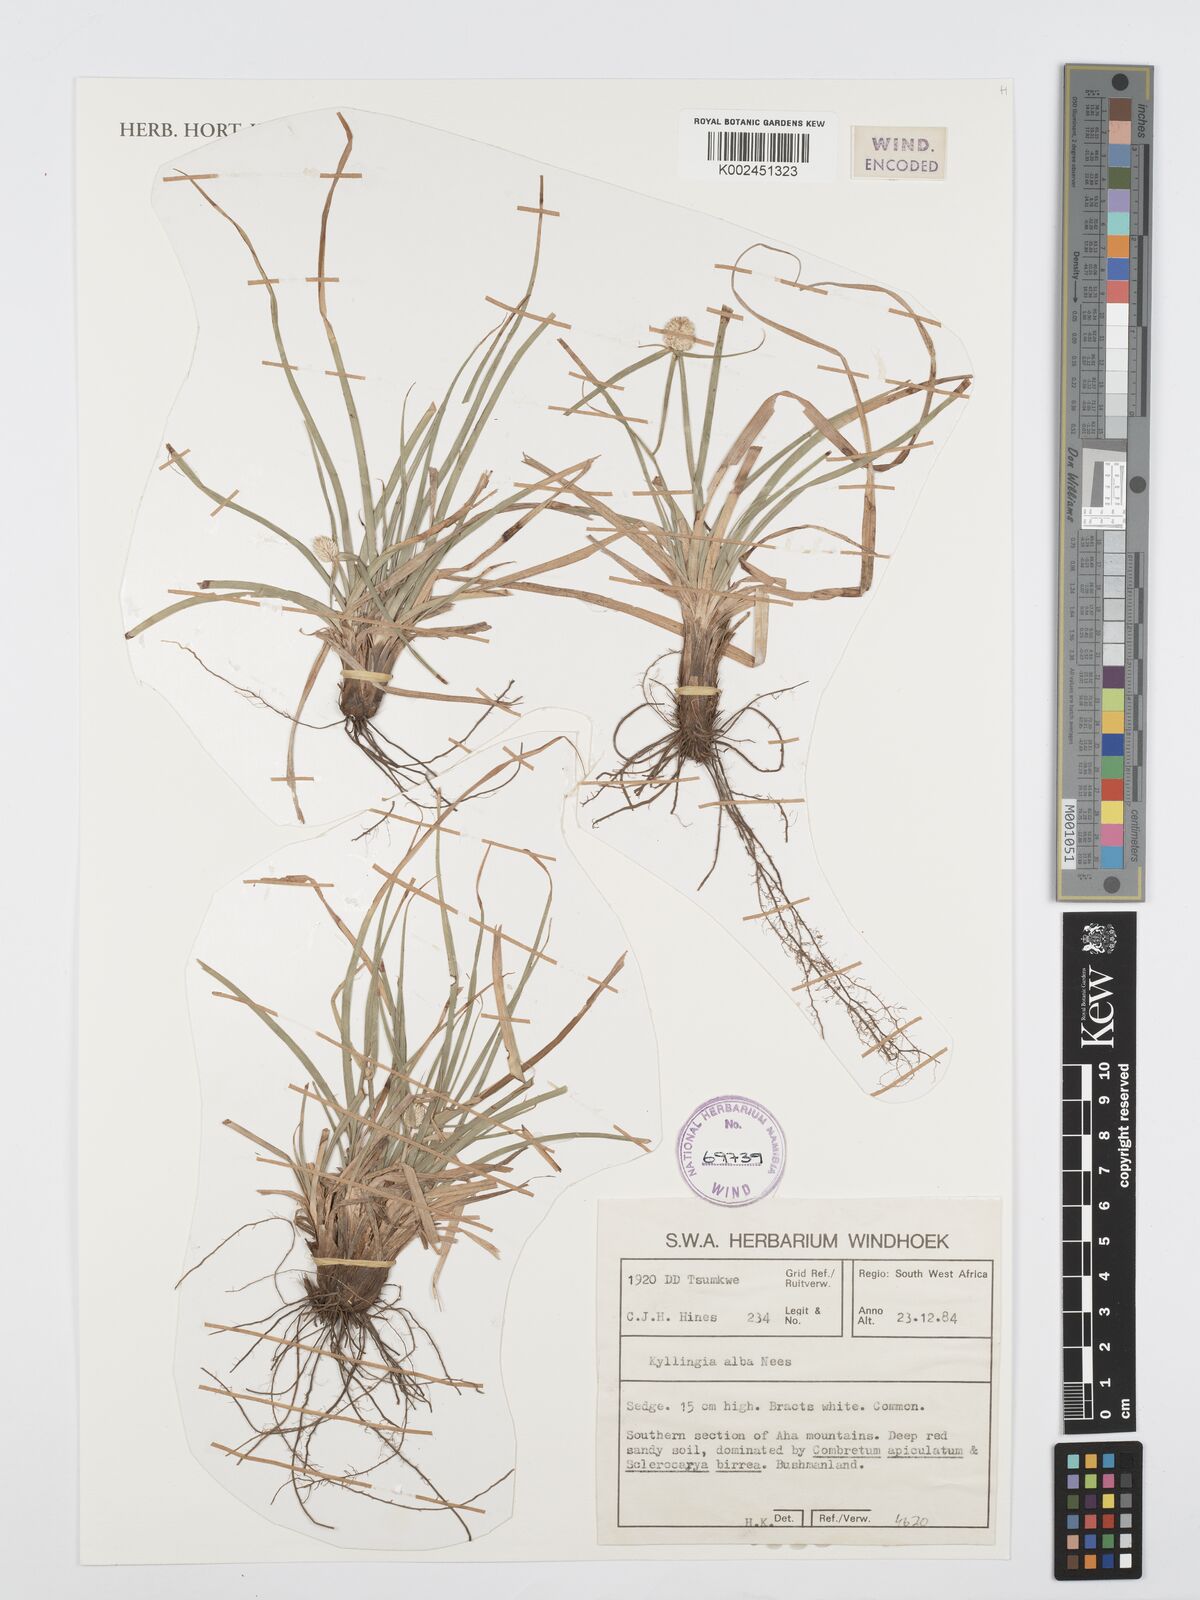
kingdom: Plantae
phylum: Tracheophyta
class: Liliopsida
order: Poales
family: Cyperaceae
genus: Cyperus
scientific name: Cyperus
